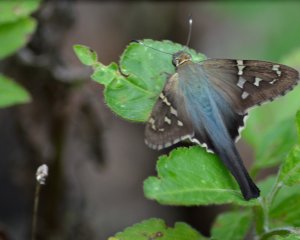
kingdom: Animalia
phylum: Arthropoda
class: Insecta
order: Lepidoptera
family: Hesperiidae
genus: Urbanus
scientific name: Urbanus proteus
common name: Long-tailed Skipper
